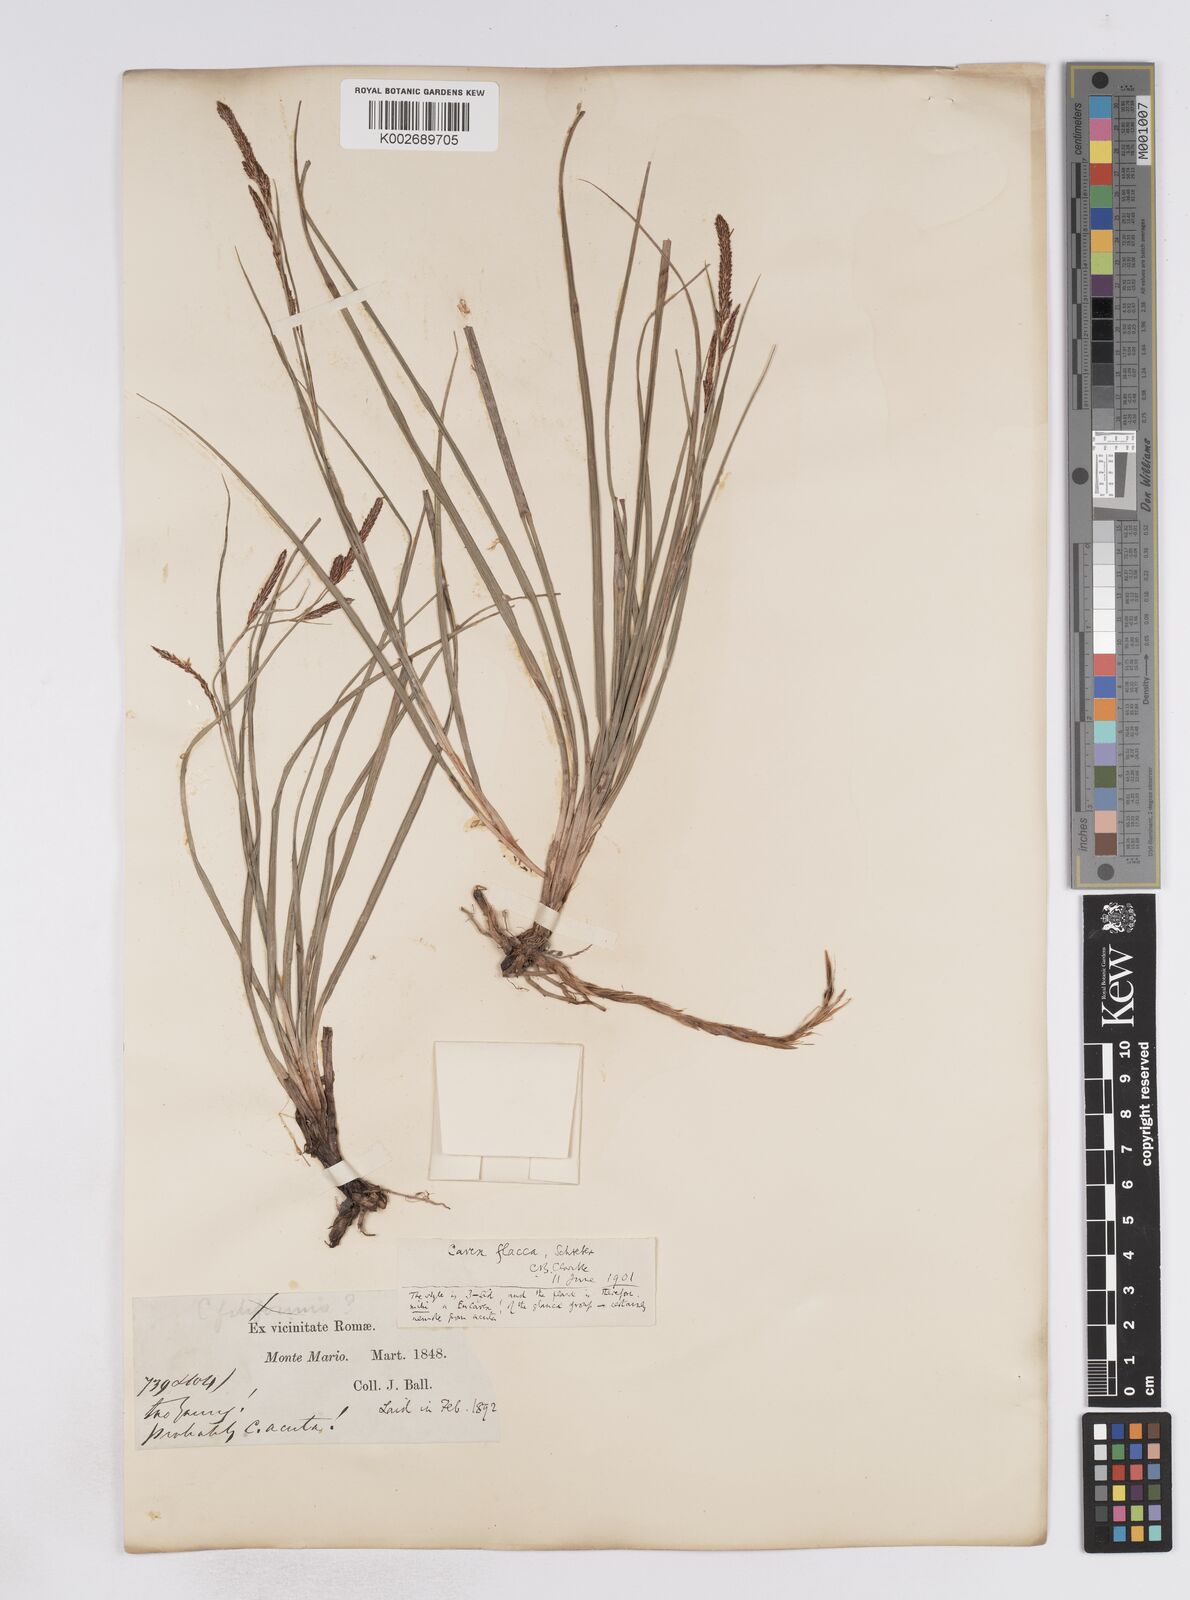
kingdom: Plantae
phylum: Tracheophyta
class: Liliopsida
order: Poales
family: Cyperaceae
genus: Carex
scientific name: Carex flacca
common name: Glaucous sedge
